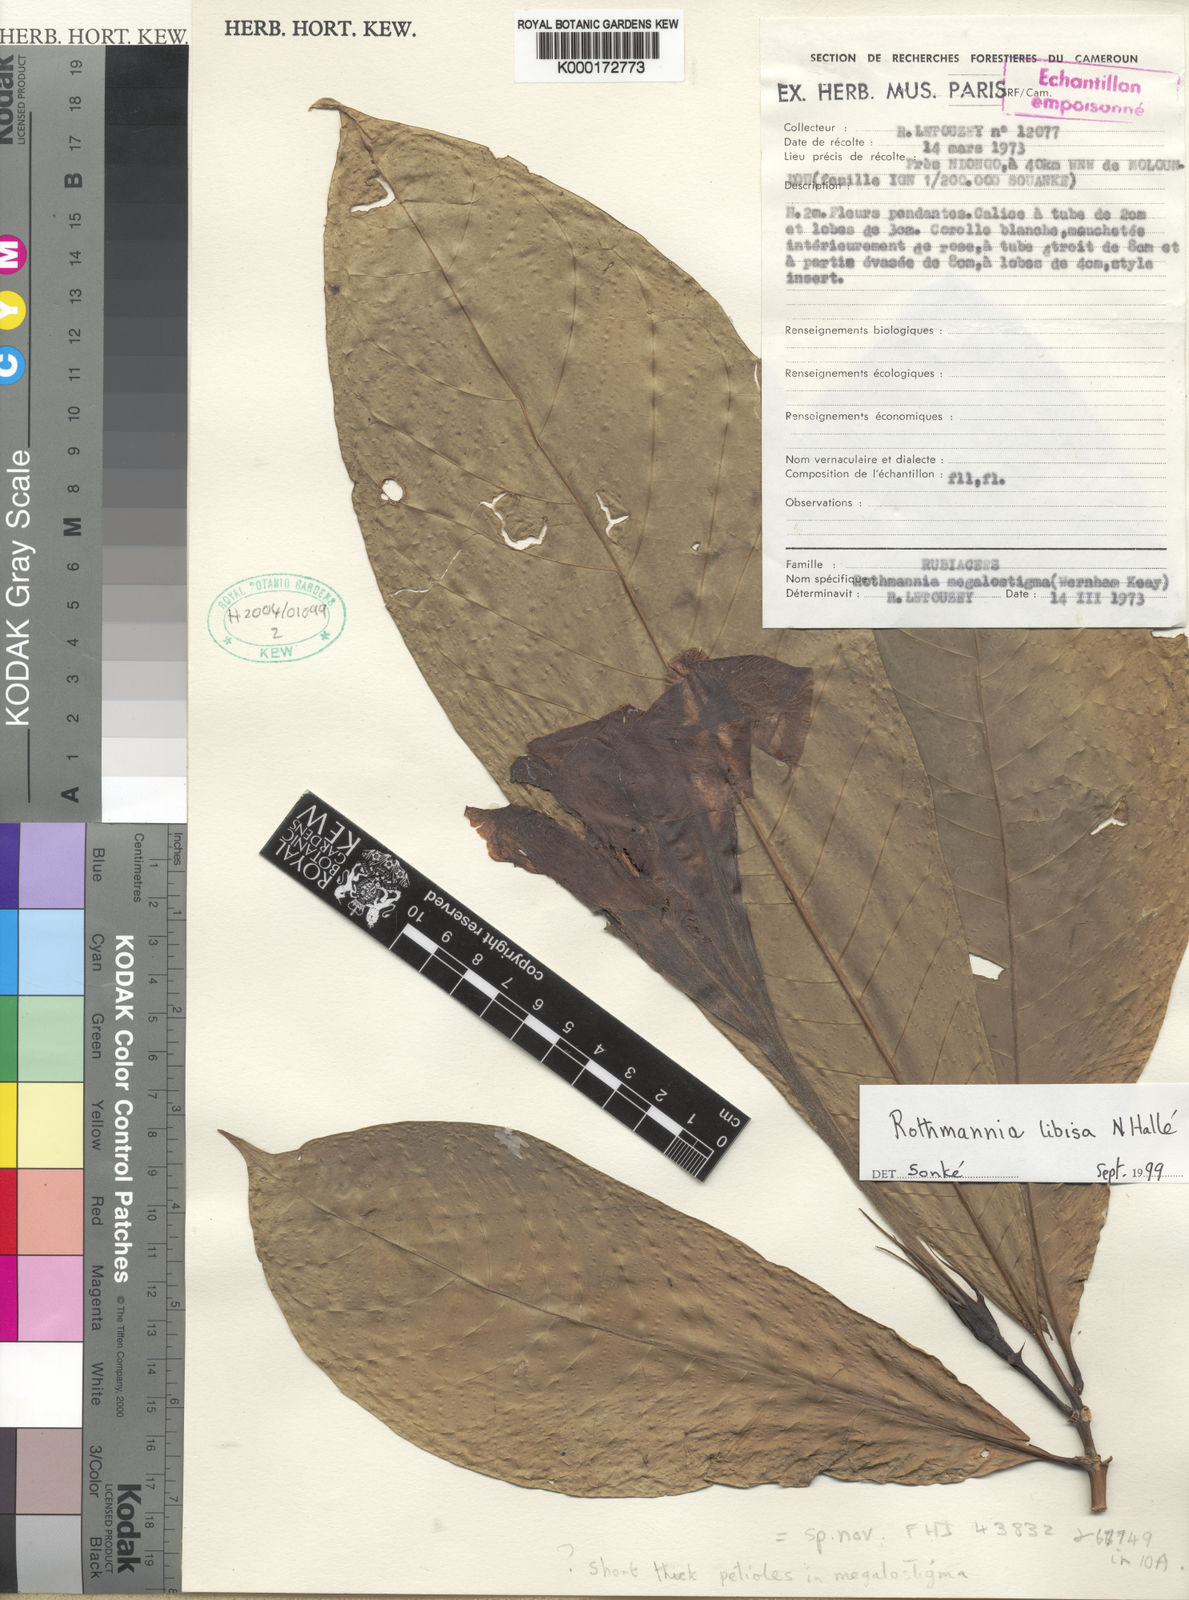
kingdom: Plantae
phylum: Tracheophyta
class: Magnoliopsida
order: Gentianales
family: Rubiaceae
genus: Rothmannia
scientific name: Rothmannia libisa
